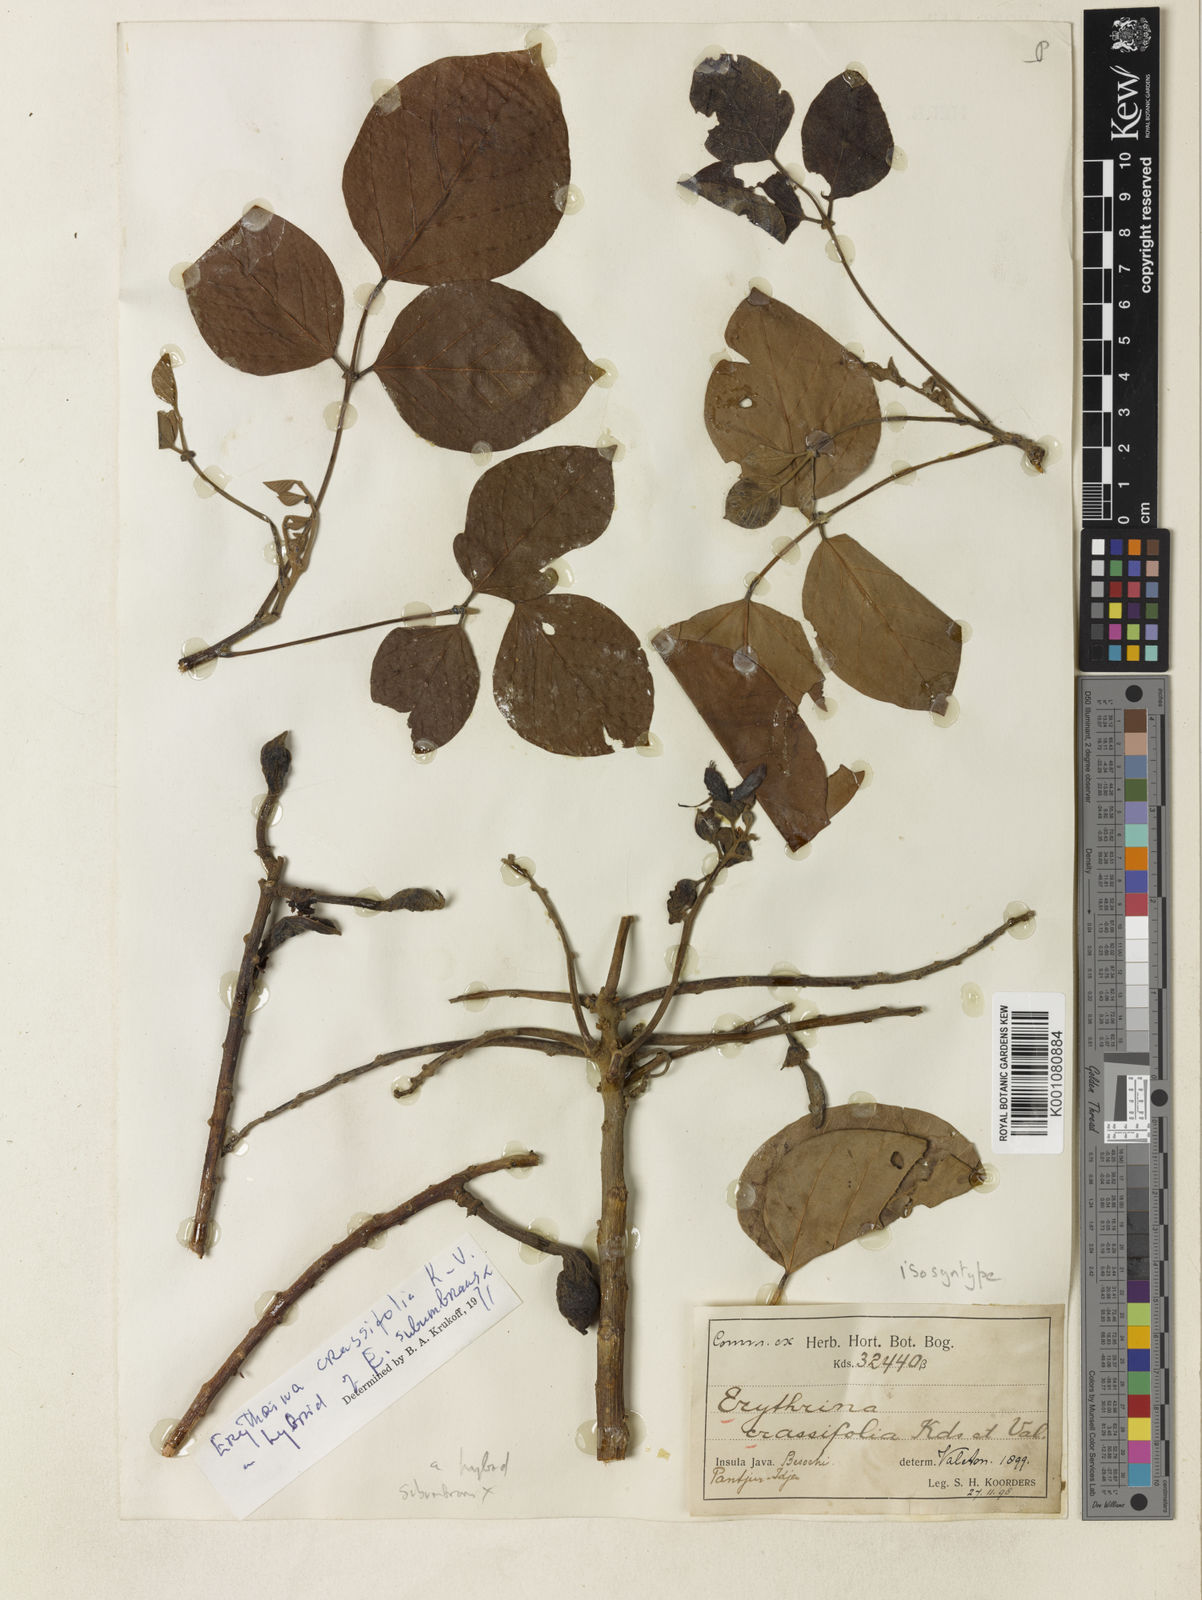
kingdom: Plantae
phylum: Tracheophyta
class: Magnoliopsida
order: Fabales
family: Fabaceae
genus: Erythrina
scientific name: Erythrina crassifolia
